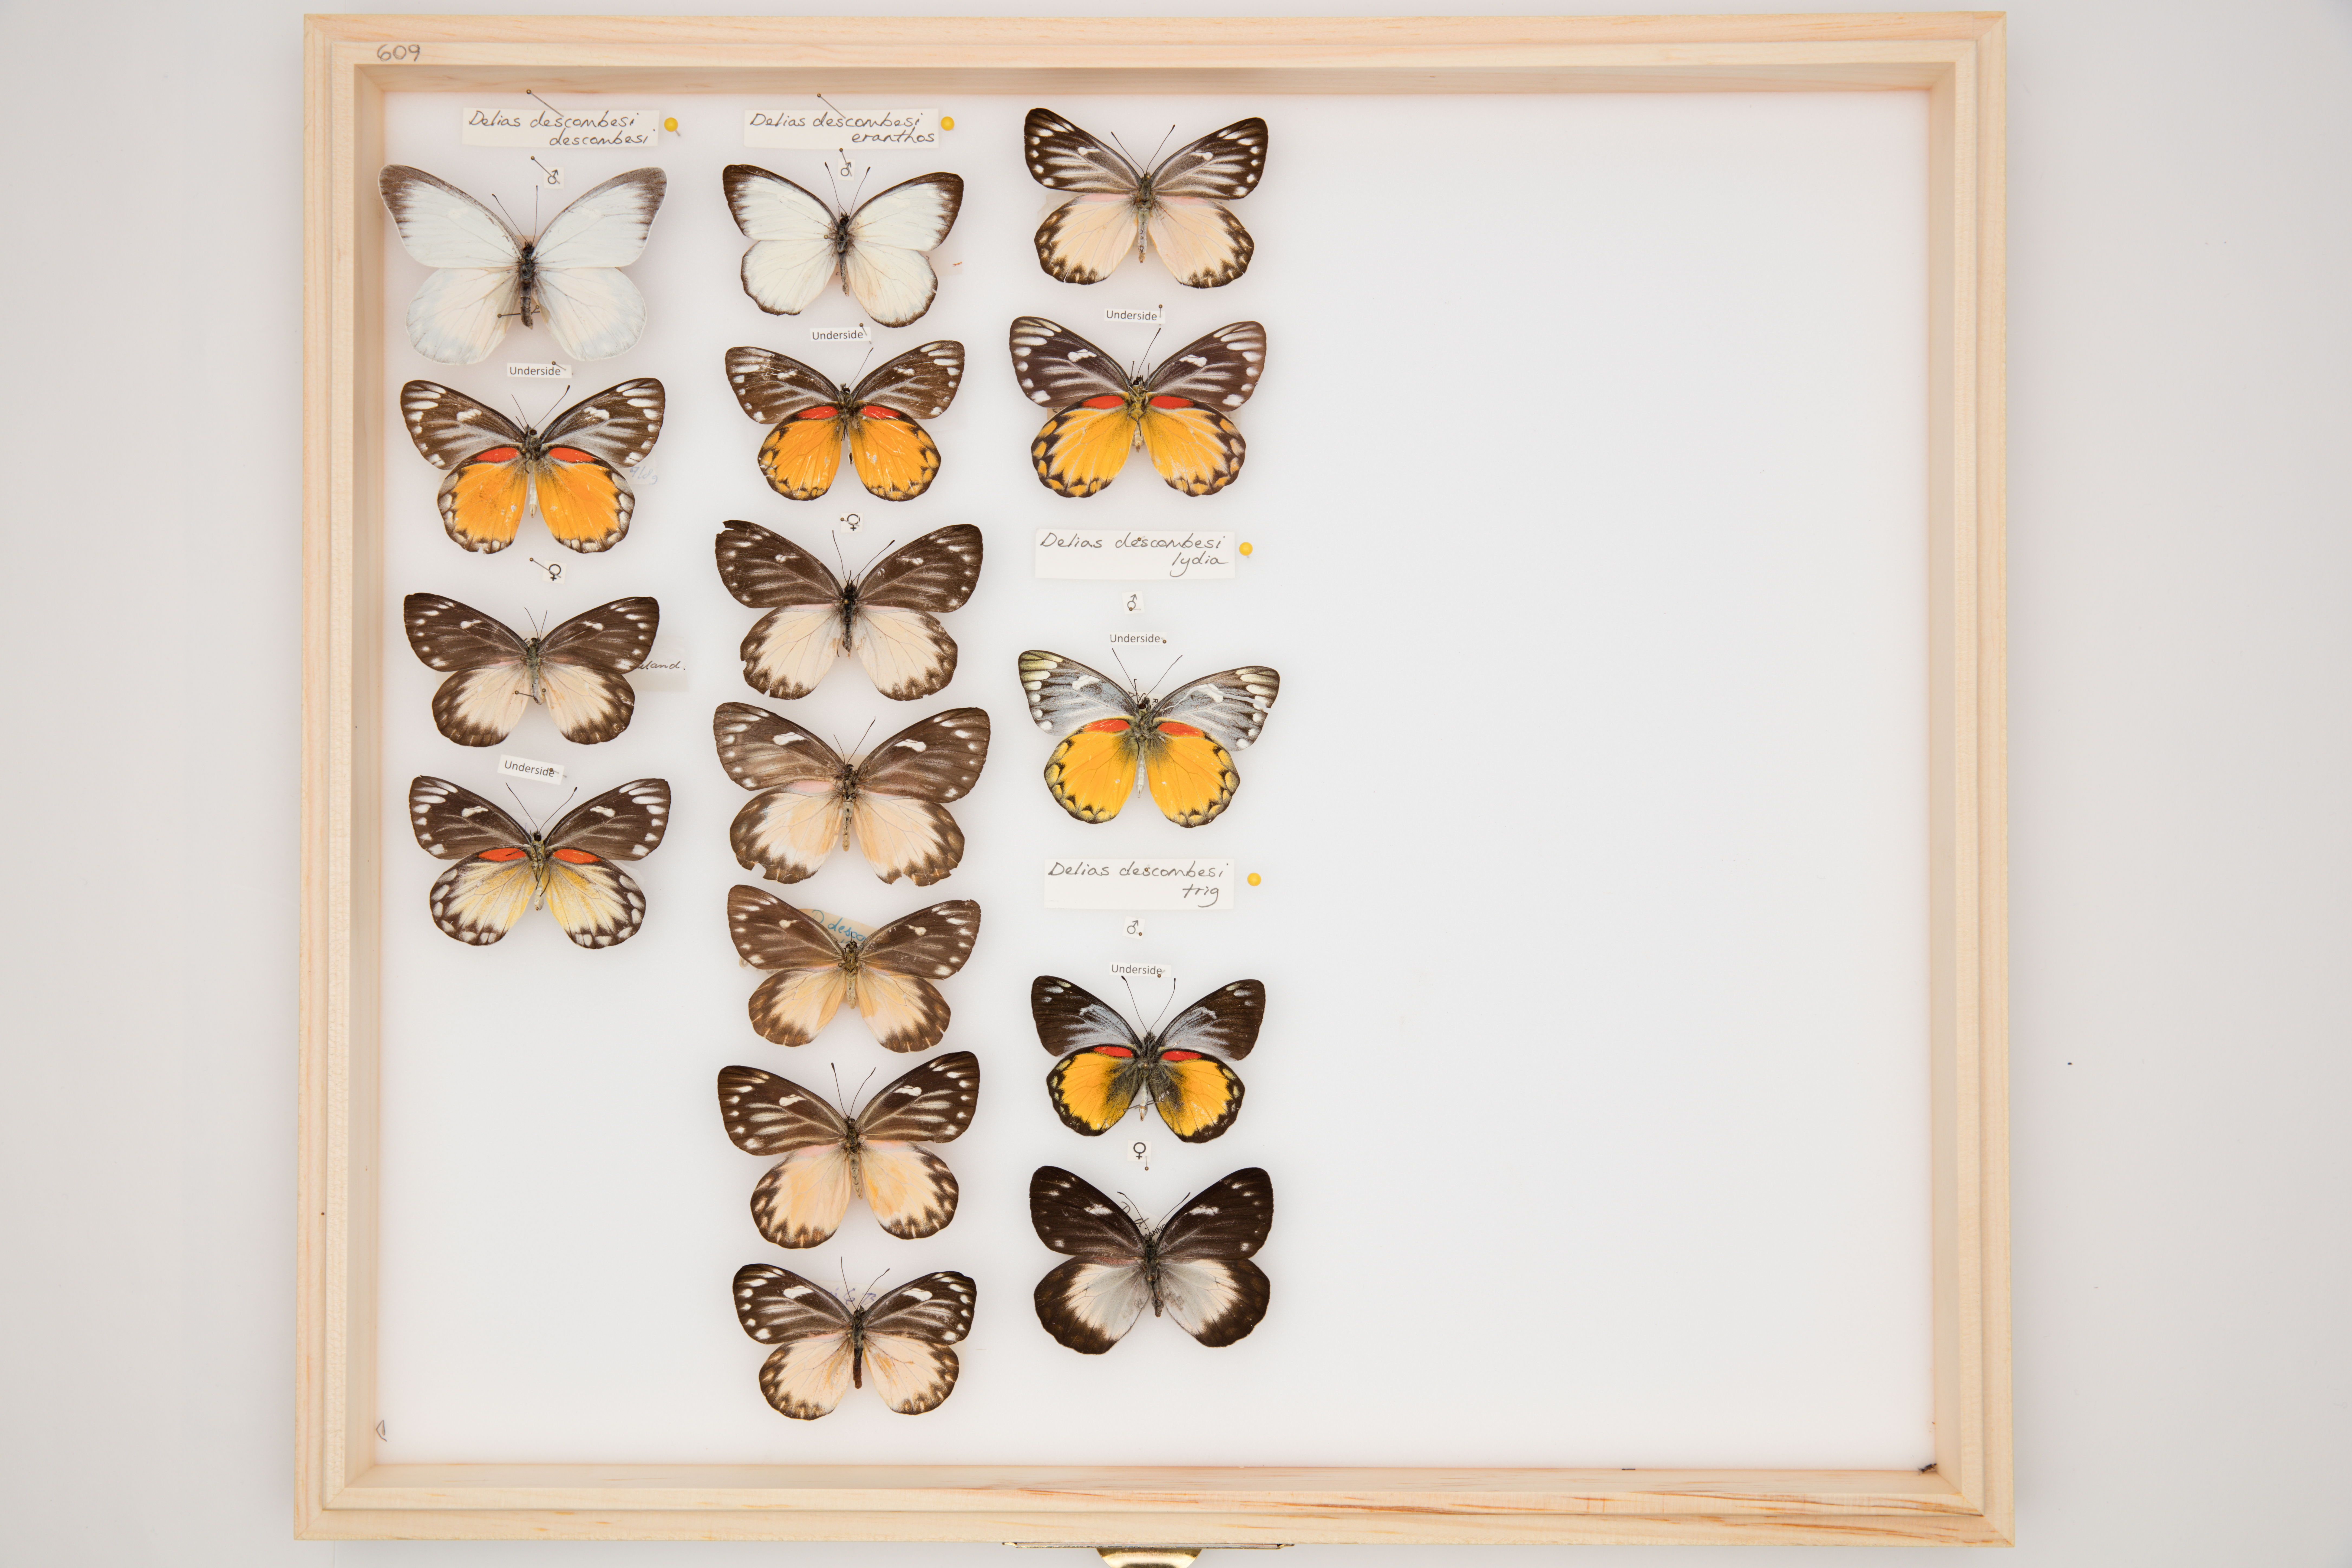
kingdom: Animalia
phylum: Arthropoda
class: Insecta
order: Lepidoptera
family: Pieridae
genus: Delias
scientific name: Delias descombesi
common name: Red-spot jezebel
